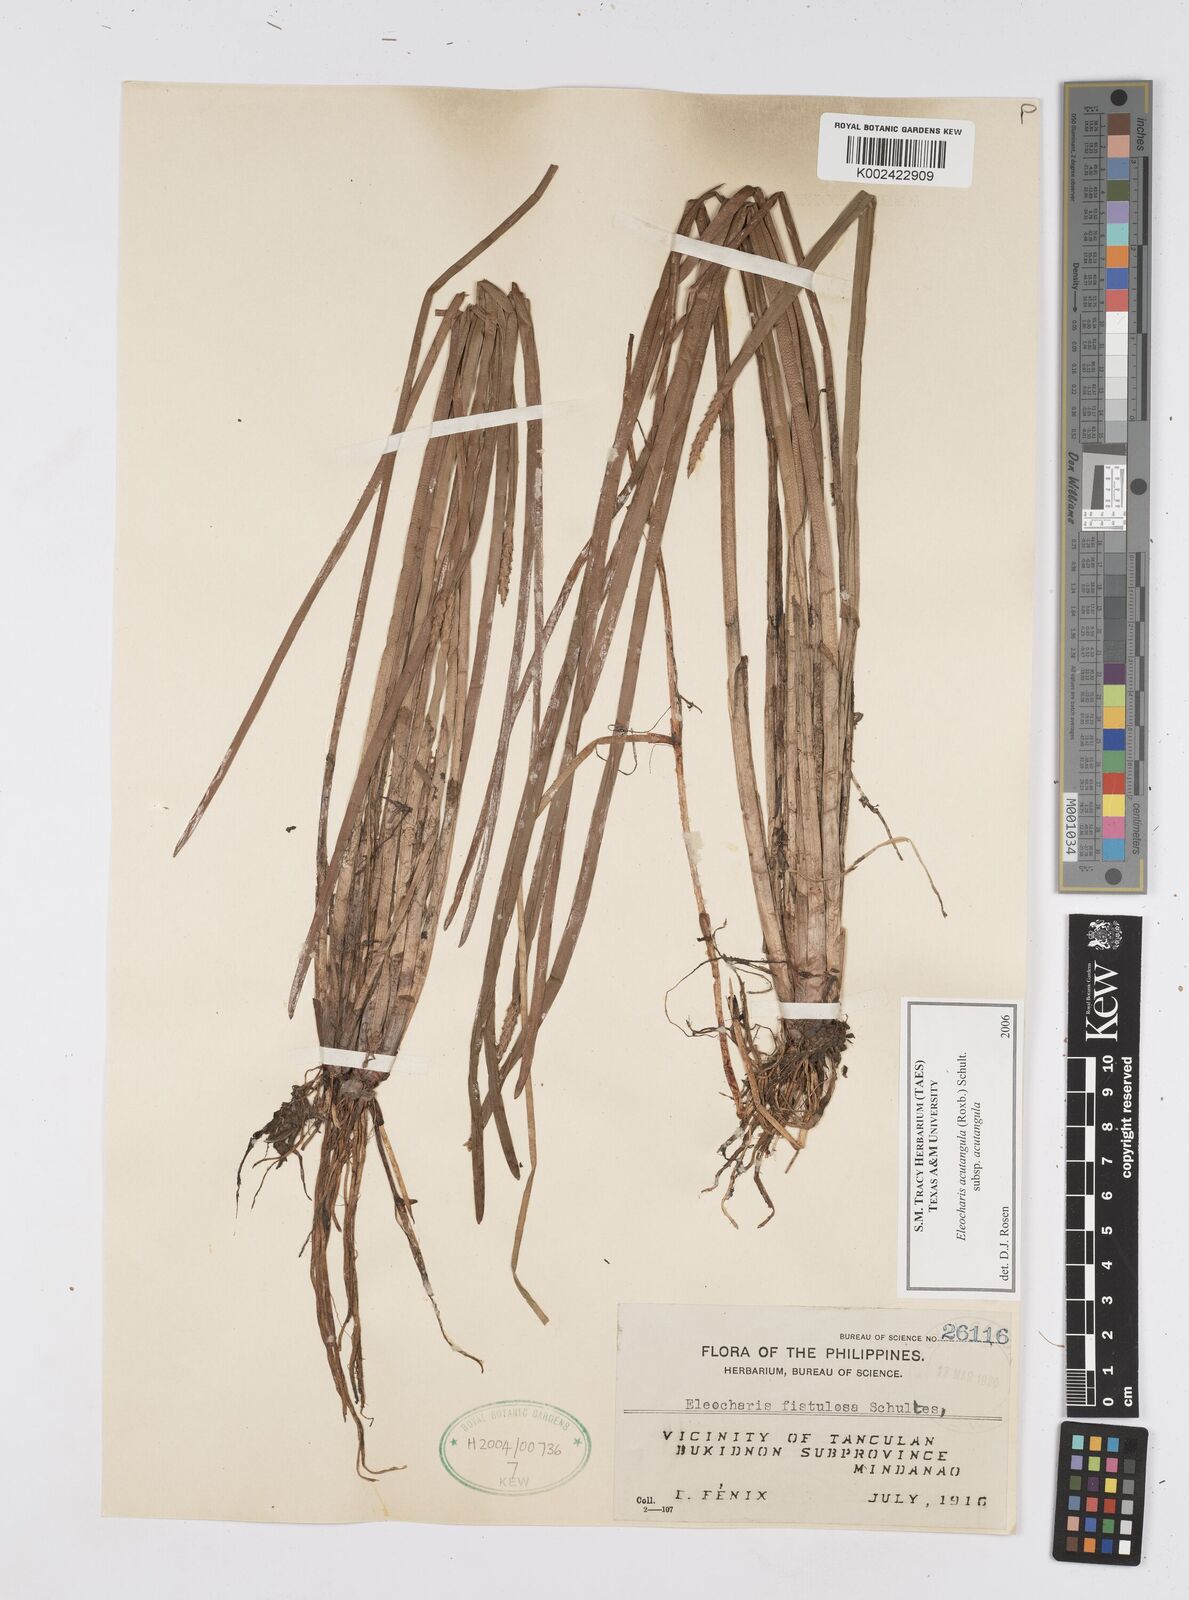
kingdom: Plantae
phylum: Tracheophyta
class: Liliopsida
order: Poales
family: Cyperaceae
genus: Eleocharis
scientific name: Eleocharis acutangula
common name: Acute spikerush
